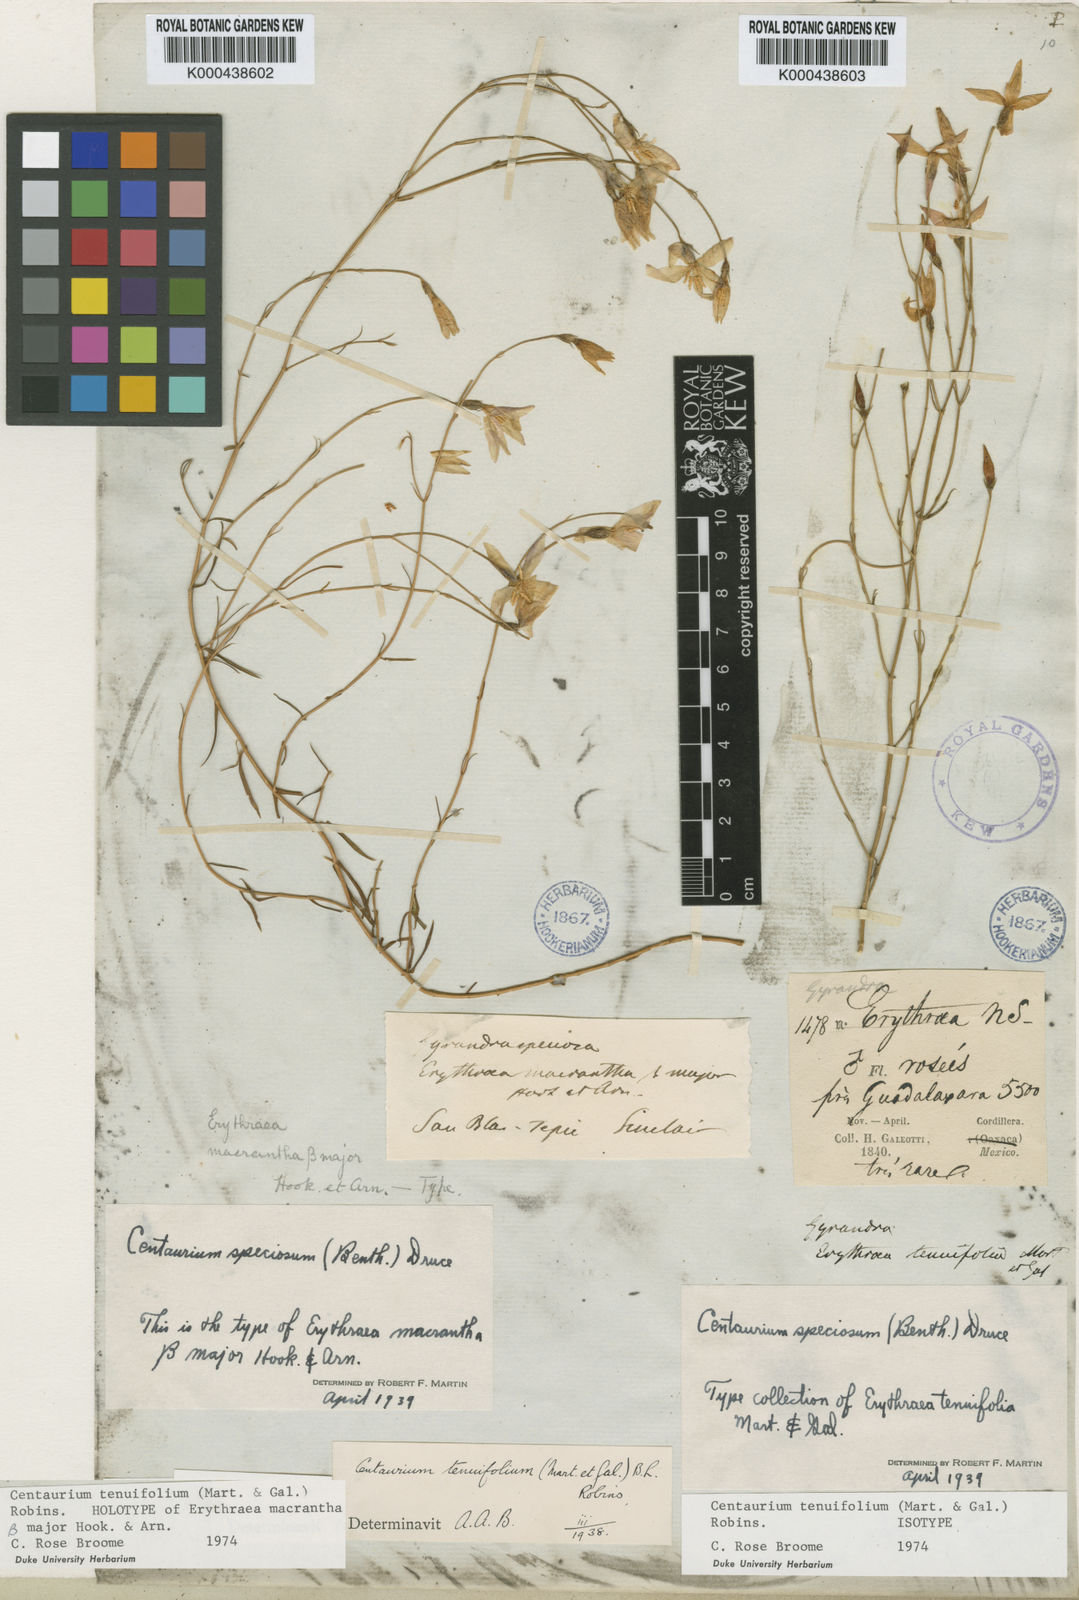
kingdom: Plantae
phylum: Tracheophyta
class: Magnoliopsida
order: Gentianales
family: Gentianaceae
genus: Gyrandra
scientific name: Gyrandra tenuifolia
